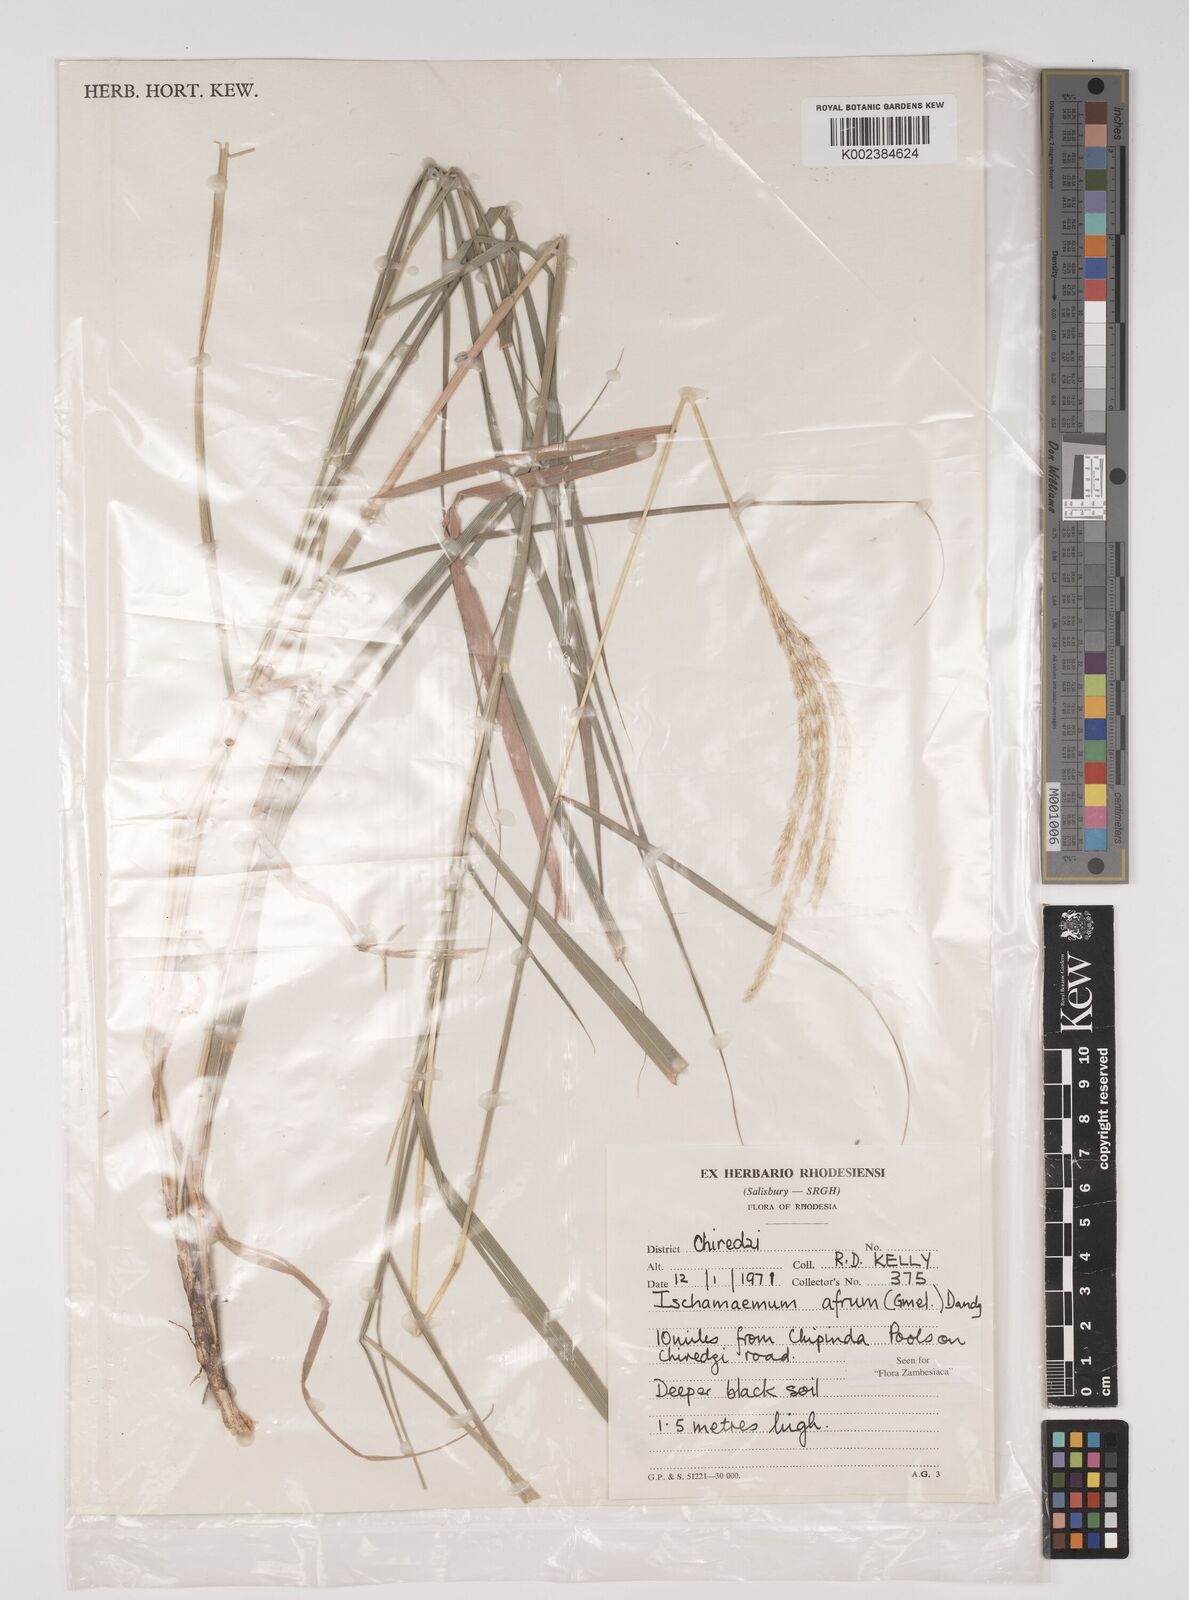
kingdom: Plantae
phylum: Tracheophyta
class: Liliopsida
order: Poales
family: Poaceae
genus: Ischaemum
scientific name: Ischaemum afrum
